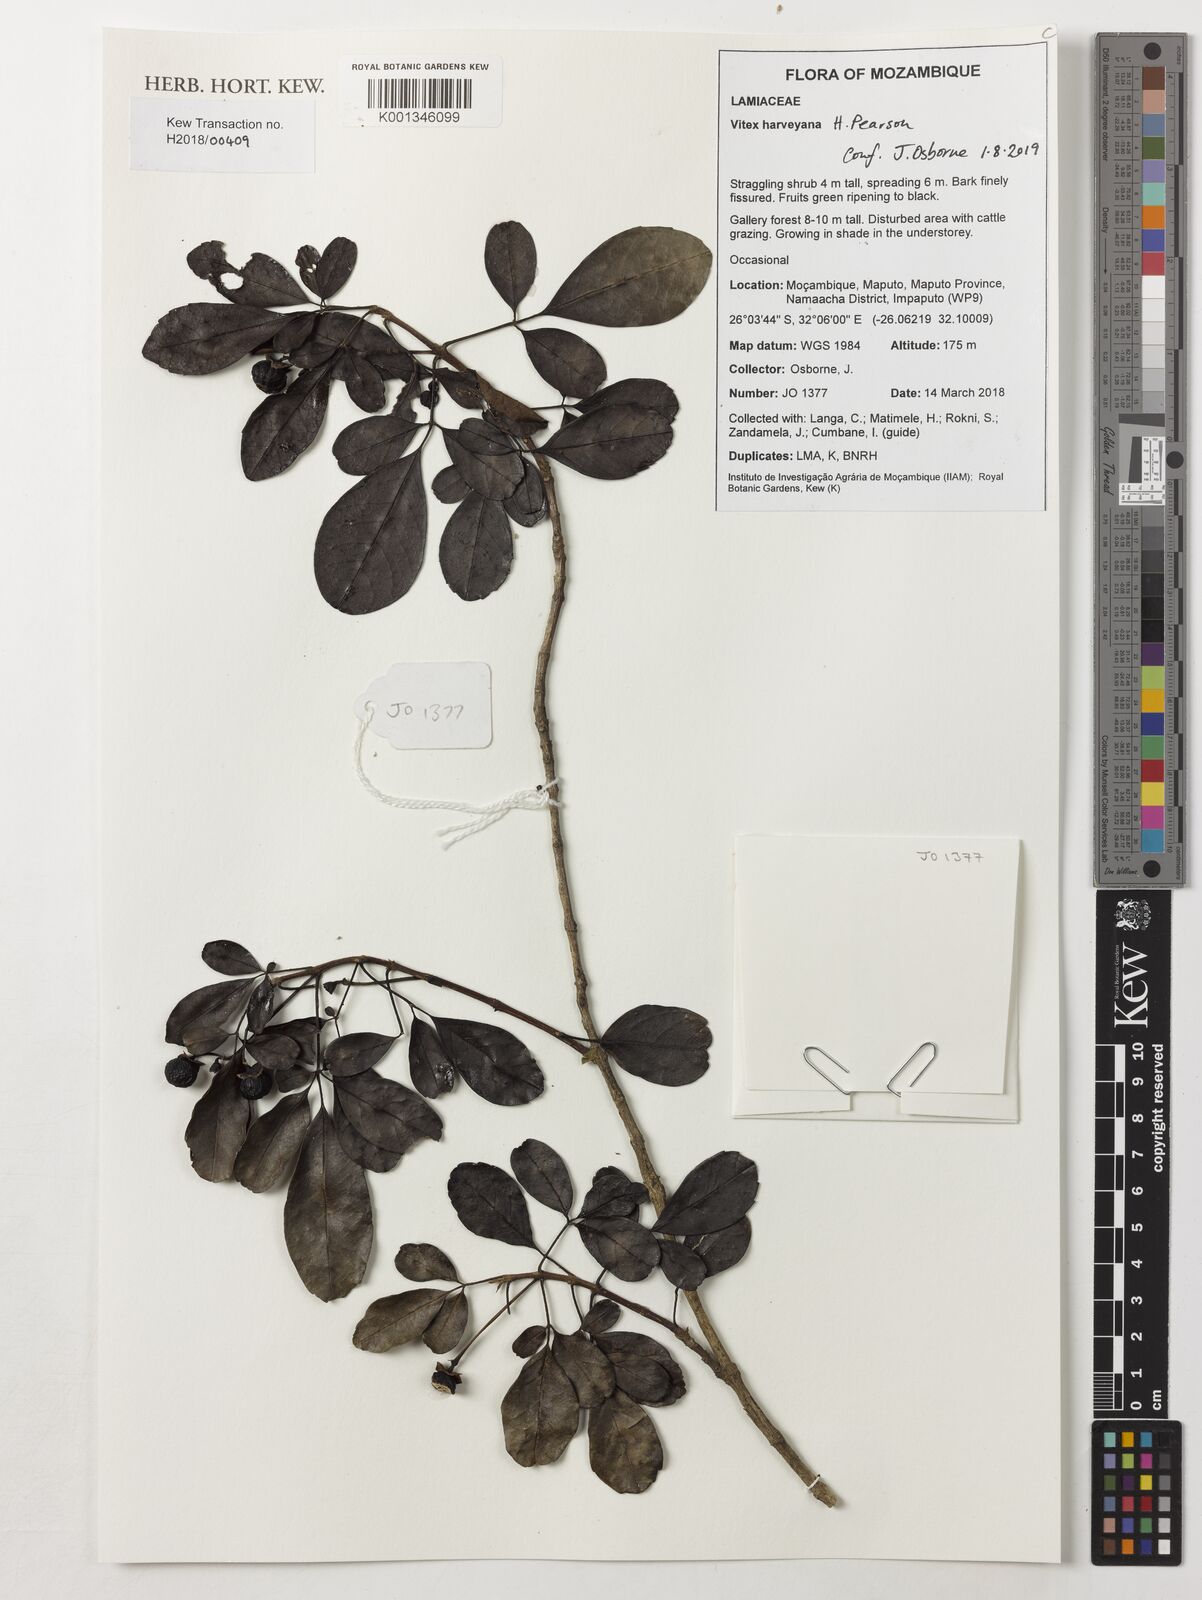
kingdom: Plantae
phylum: Tracheophyta
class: Magnoliopsida
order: Lamiales
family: Lamiaceae
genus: Vitex
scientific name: Vitex harveyana
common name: Scrambling fingerleaf
